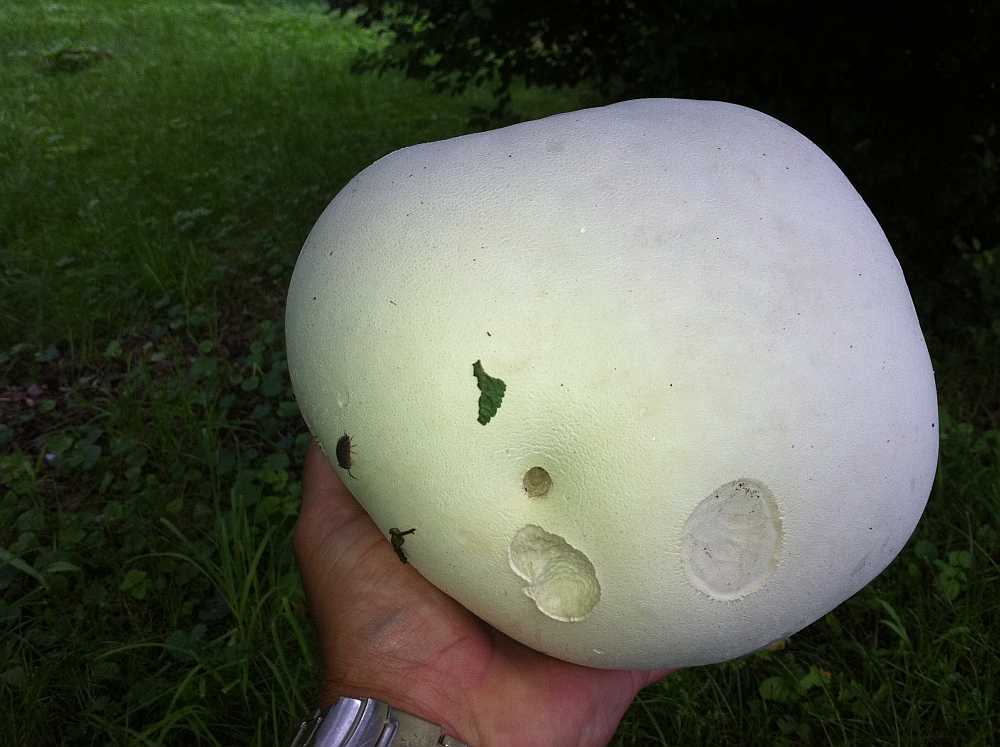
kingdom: Fungi
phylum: Basidiomycota
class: Agaricomycetes
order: Agaricales
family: Lycoperdaceae
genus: Calvatia
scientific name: Calvatia gigantea
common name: kæmpestøvbold
